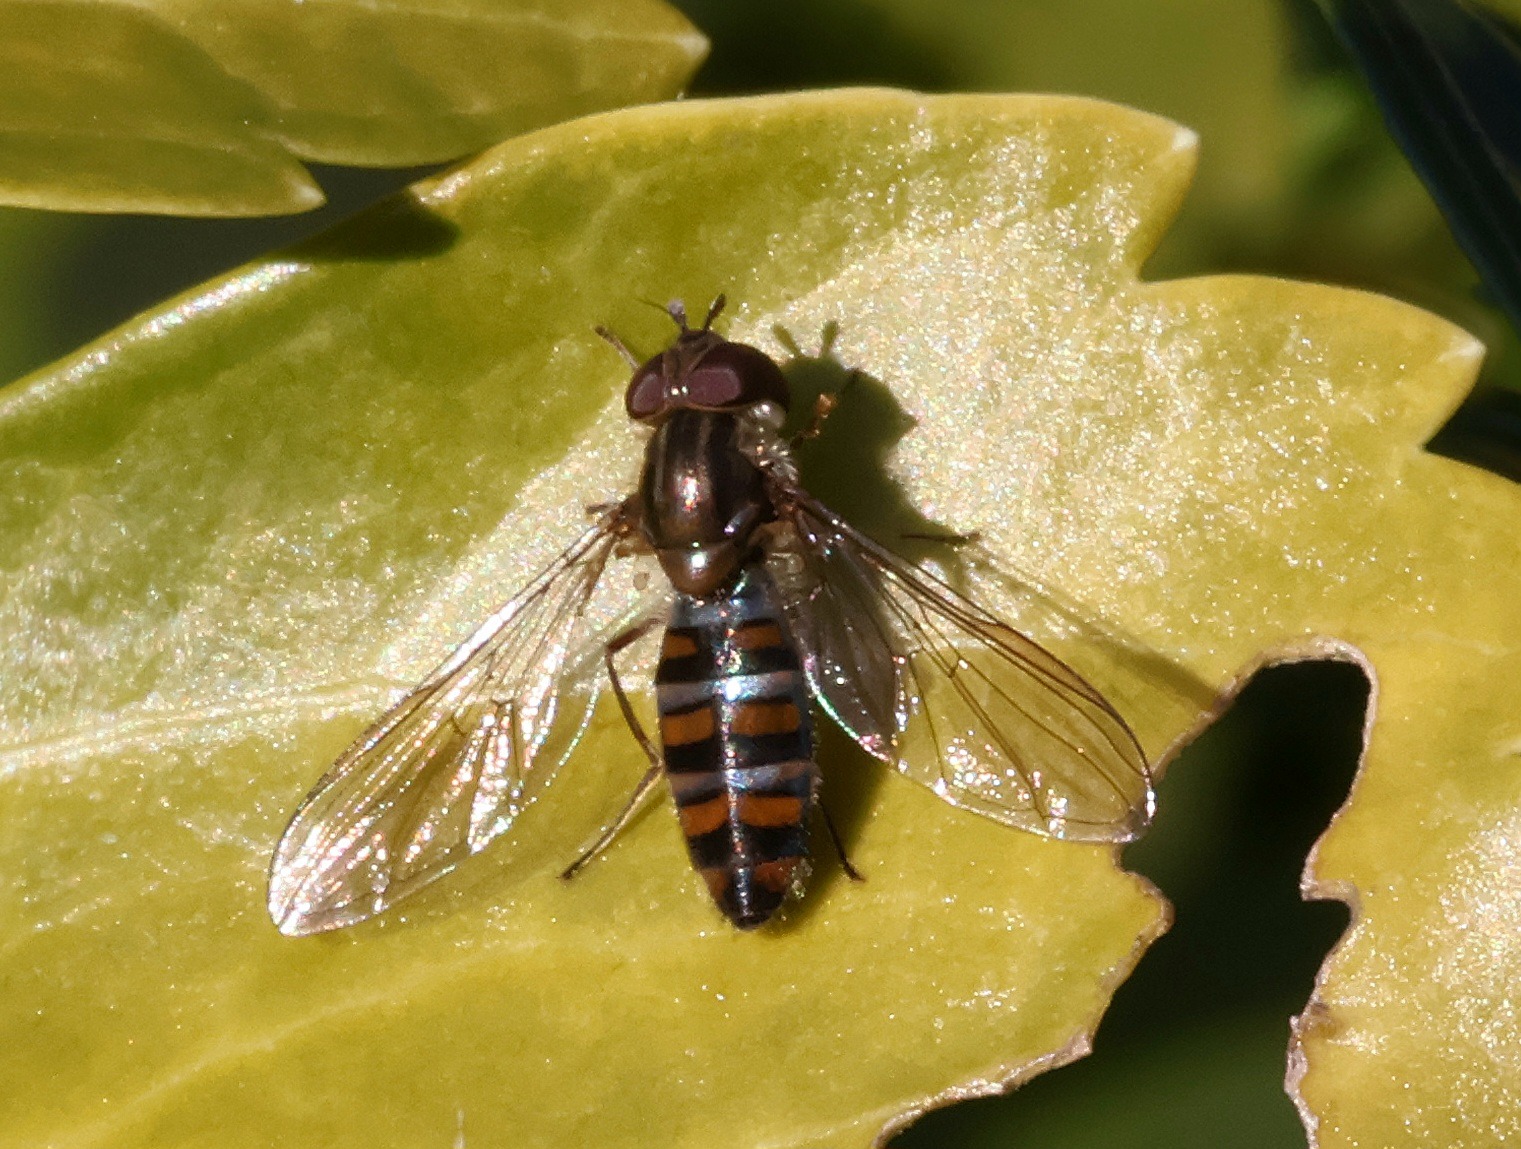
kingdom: Animalia
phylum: Arthropoda
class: Insecta
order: Diptera
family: Syrphidae
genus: Episyrphus
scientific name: Episyrphus balteatus
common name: Dobbeltbåndet svirreflue
